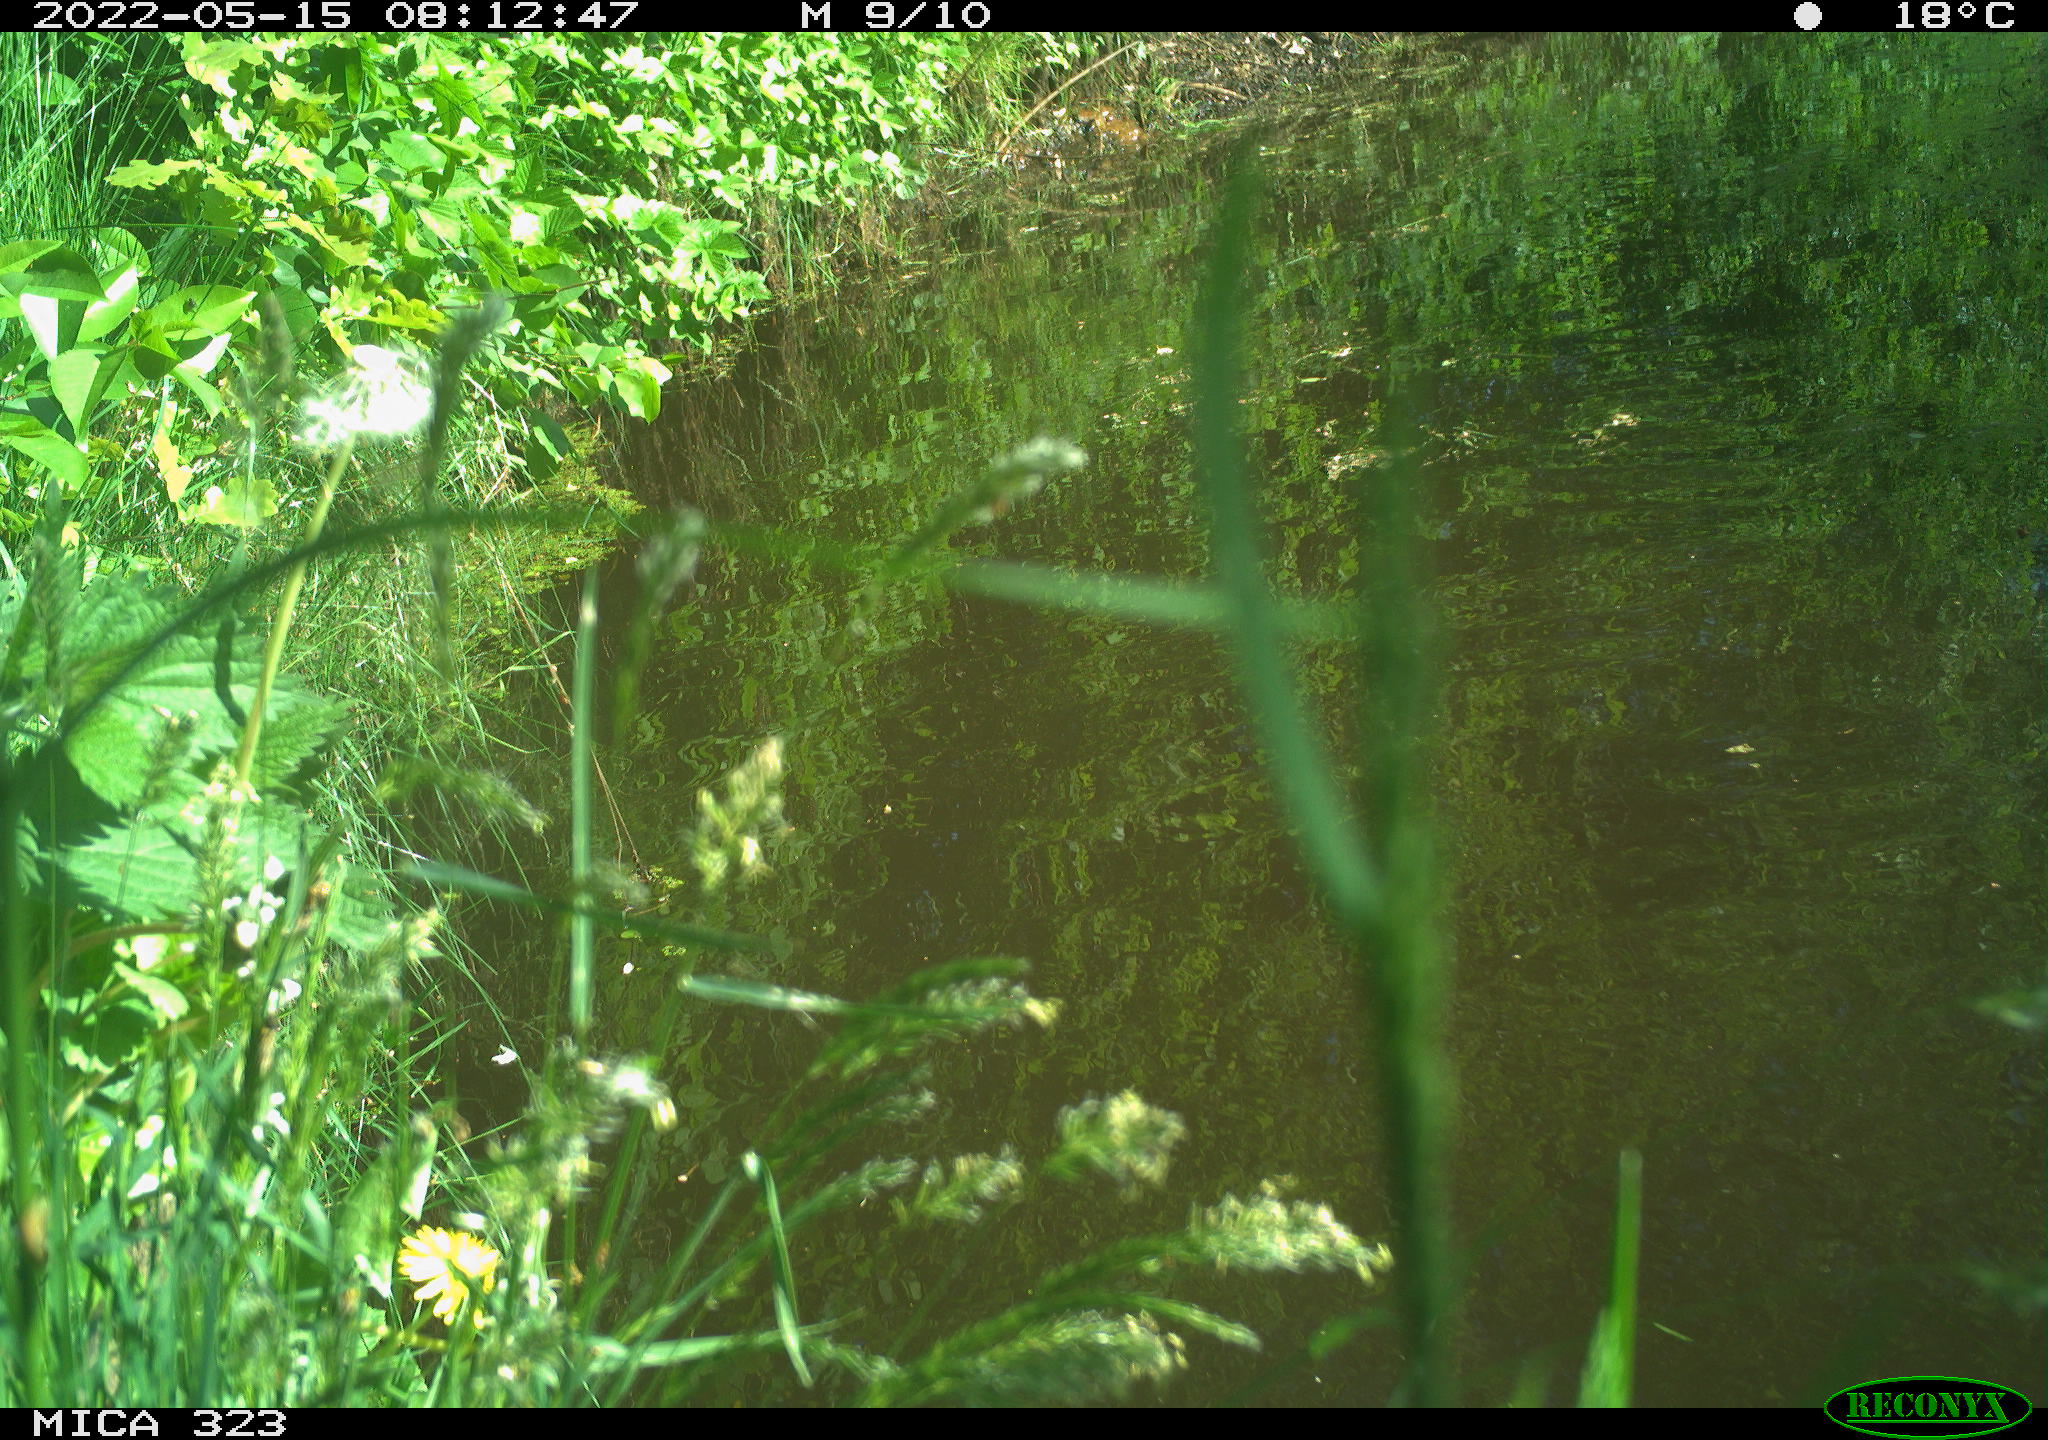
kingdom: Animalia
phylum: Chordata
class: Aves
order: Anseriformes
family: Anatidae
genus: Anas
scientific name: Anas platyrhynchos
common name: Mallard
